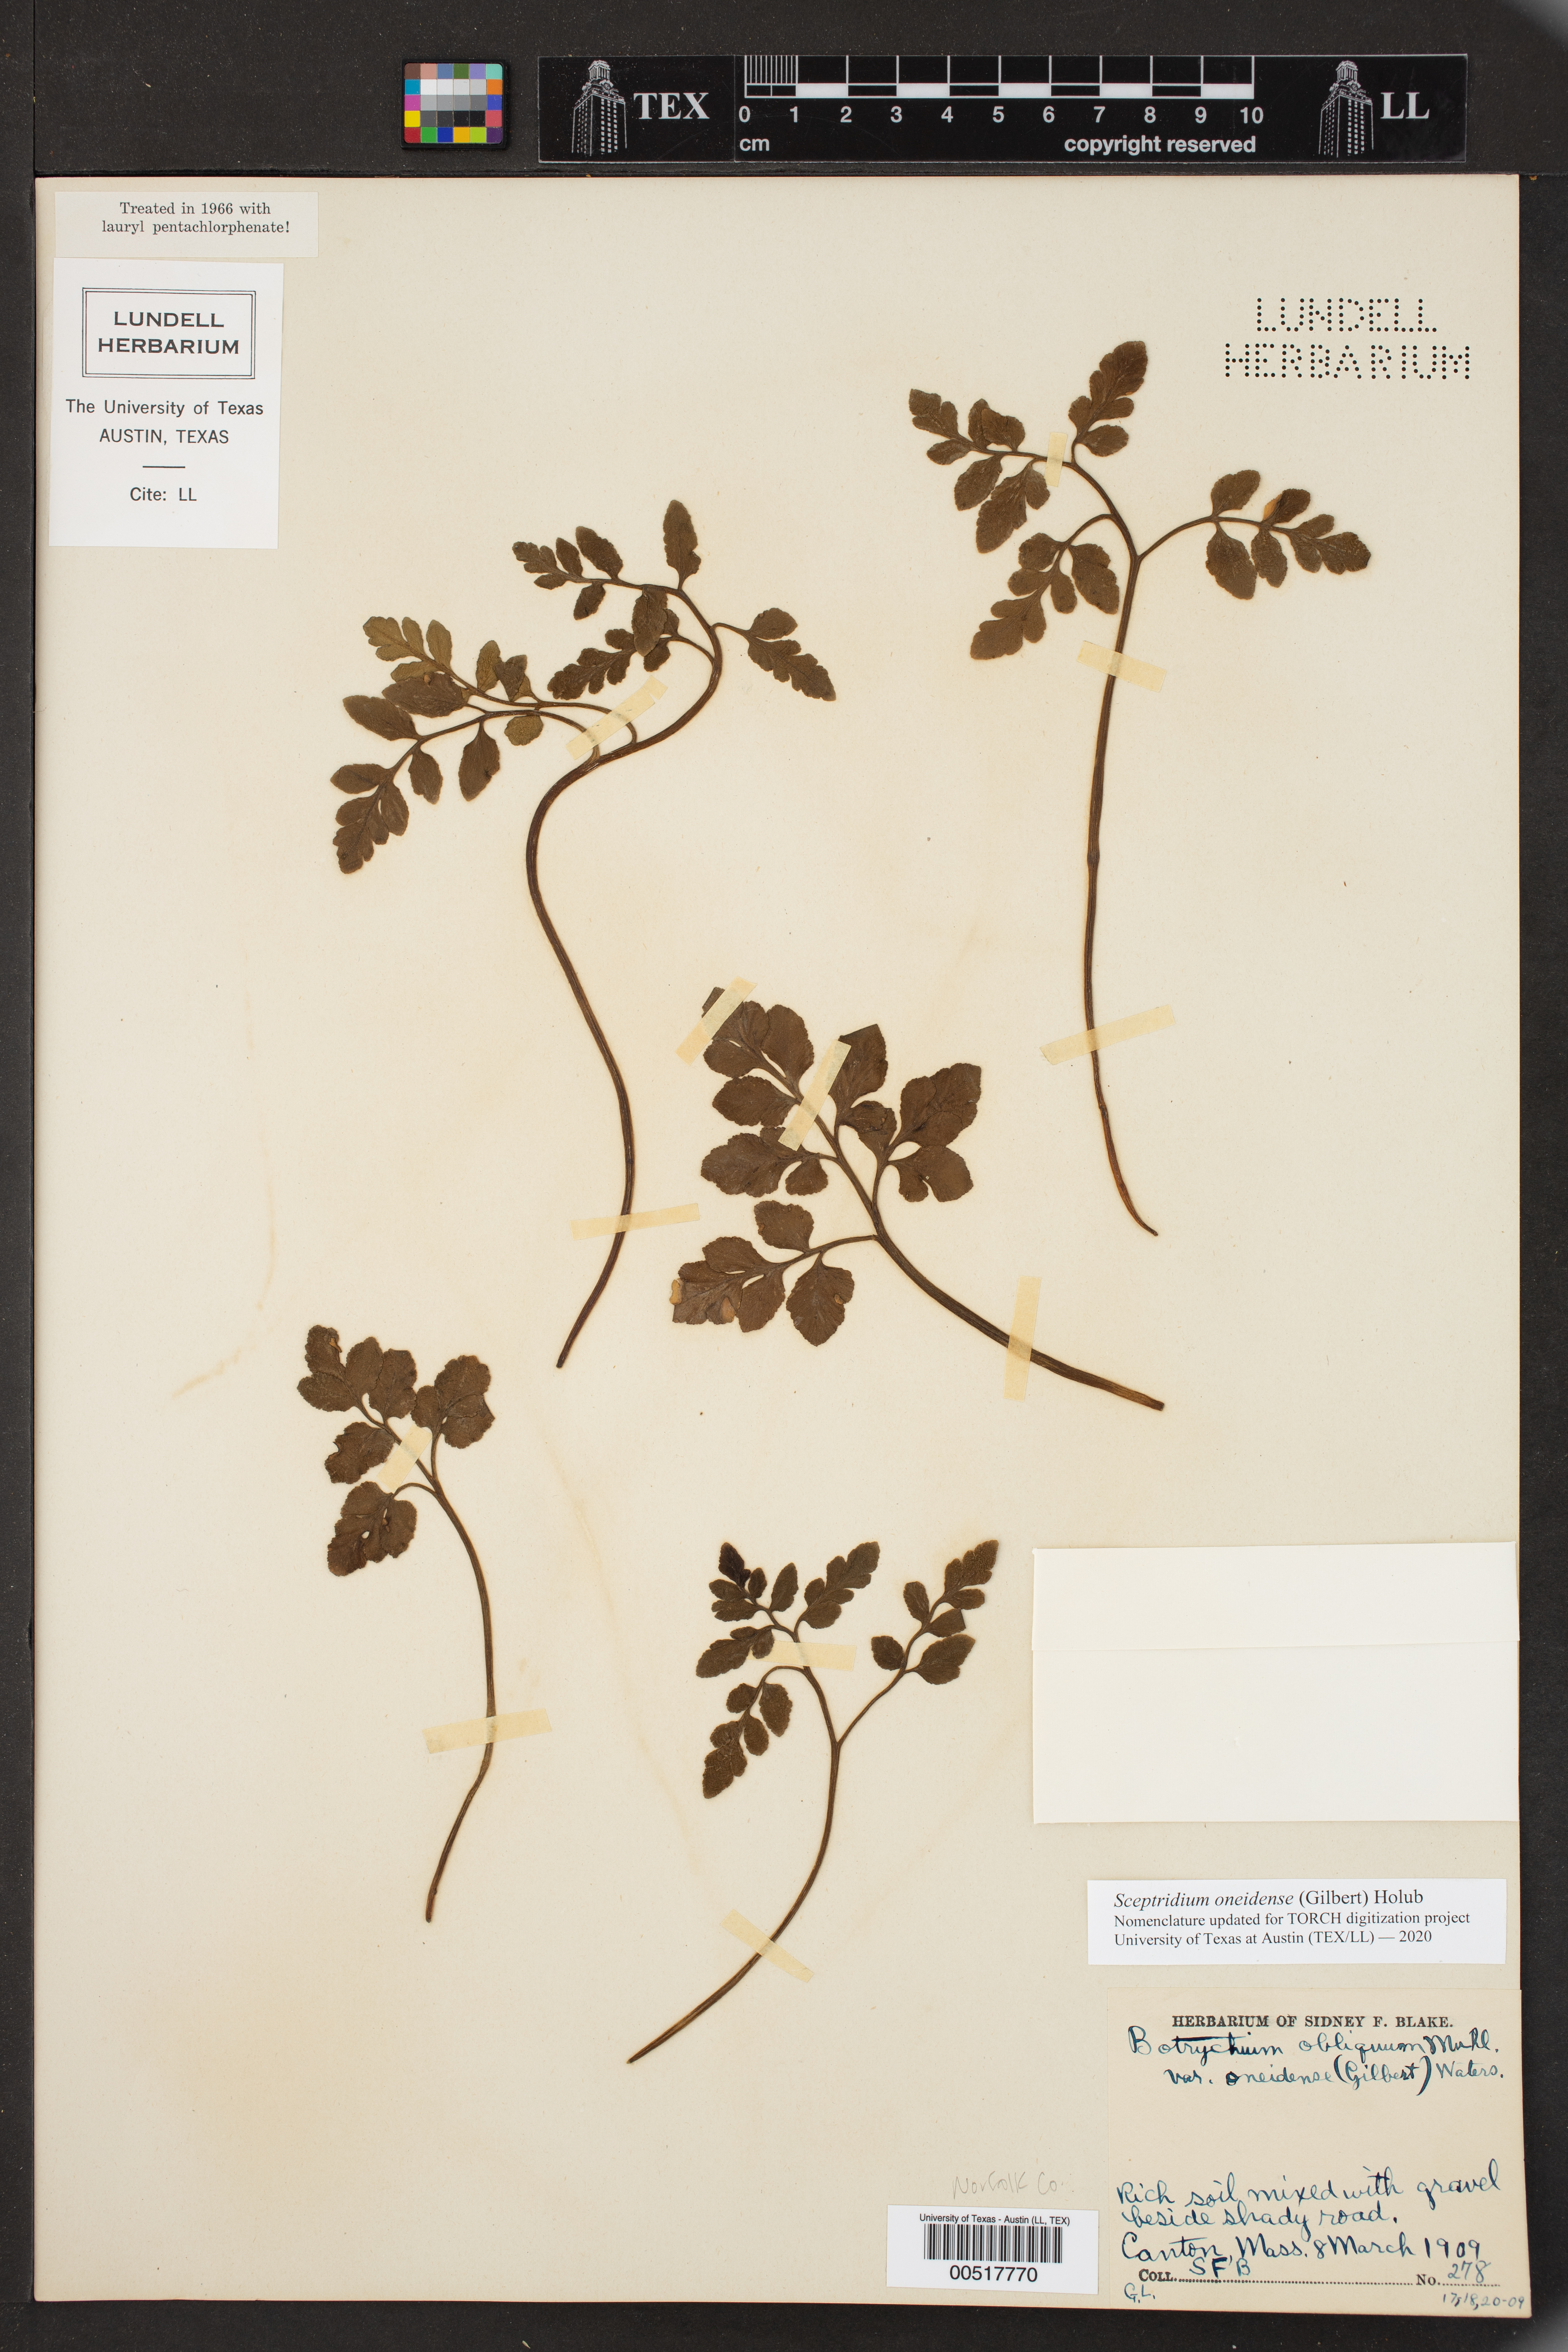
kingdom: Plantae
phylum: Tracheophyta
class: Polypodiopsida
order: Ophioglossales
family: Ophioglossaceae
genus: Sceptridium
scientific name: Sceptridium oneidense
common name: Blunt-lobed grapefern
